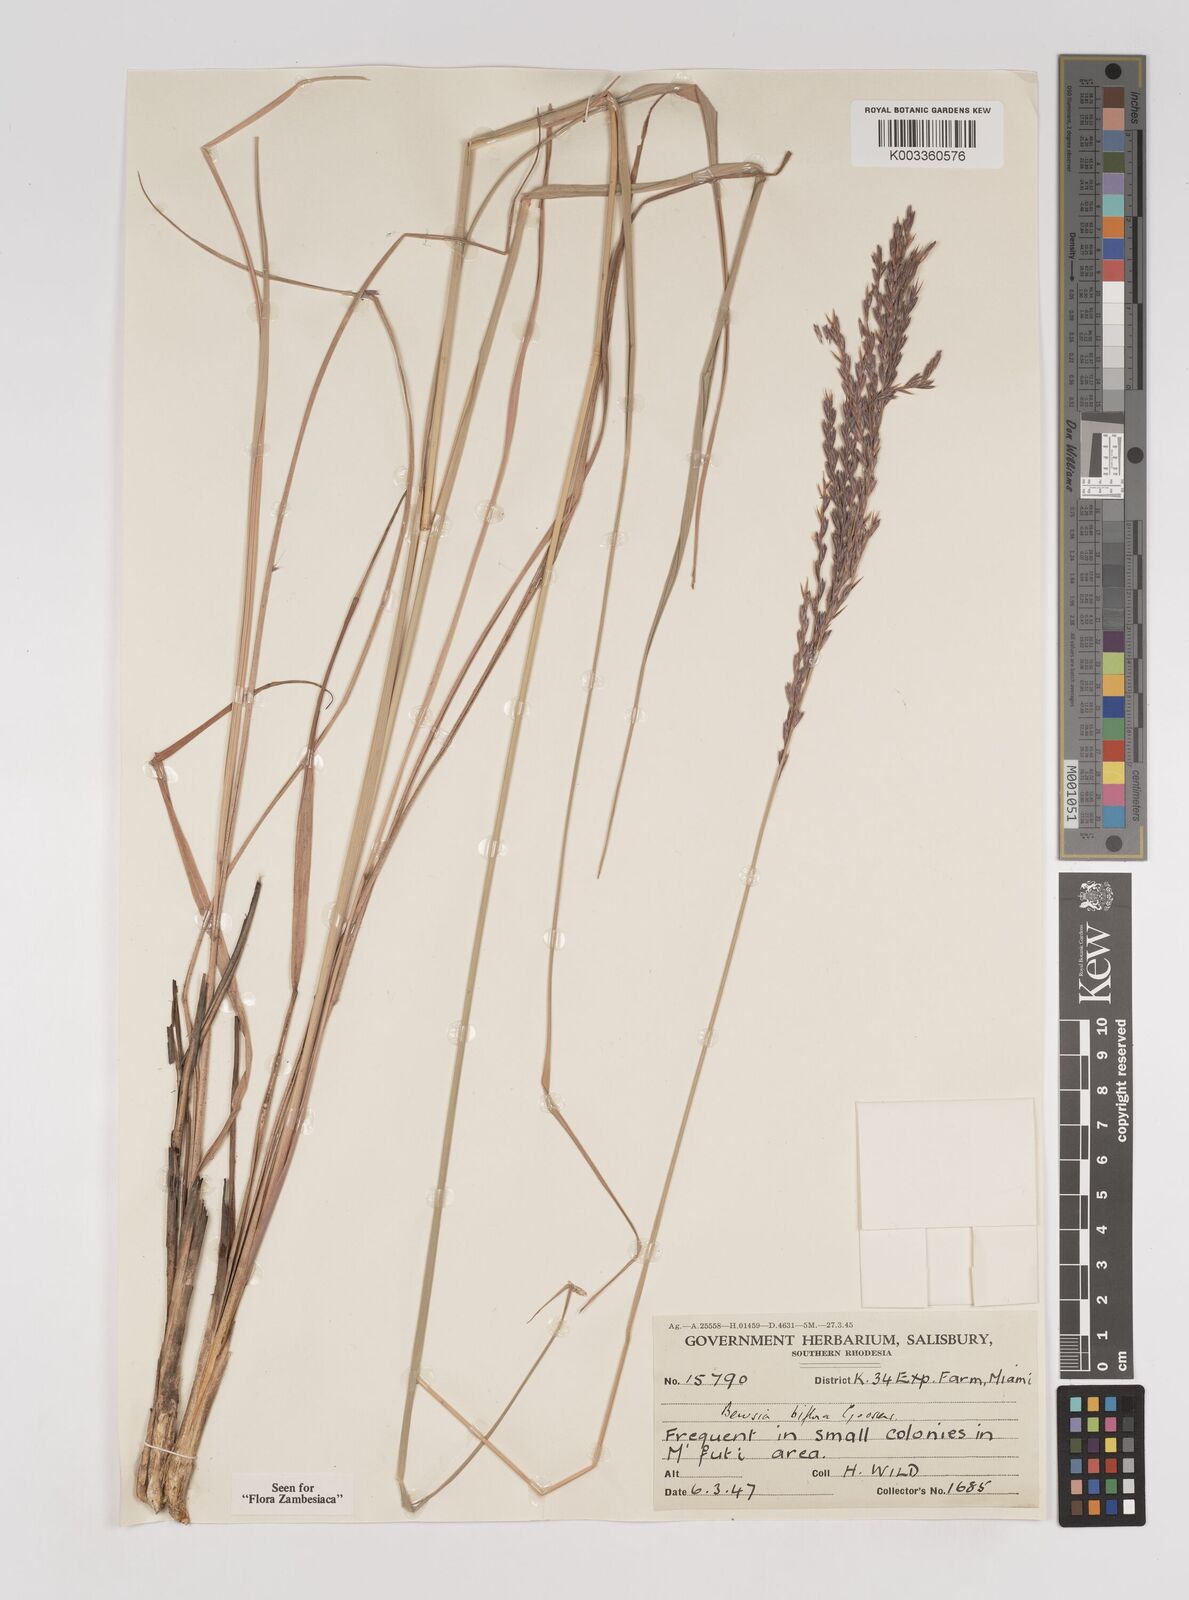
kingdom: Plantae
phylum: Tracheophyta
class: Liliopsida
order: Poales
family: Poaceae
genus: Bewsia
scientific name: Bewsia biflora
